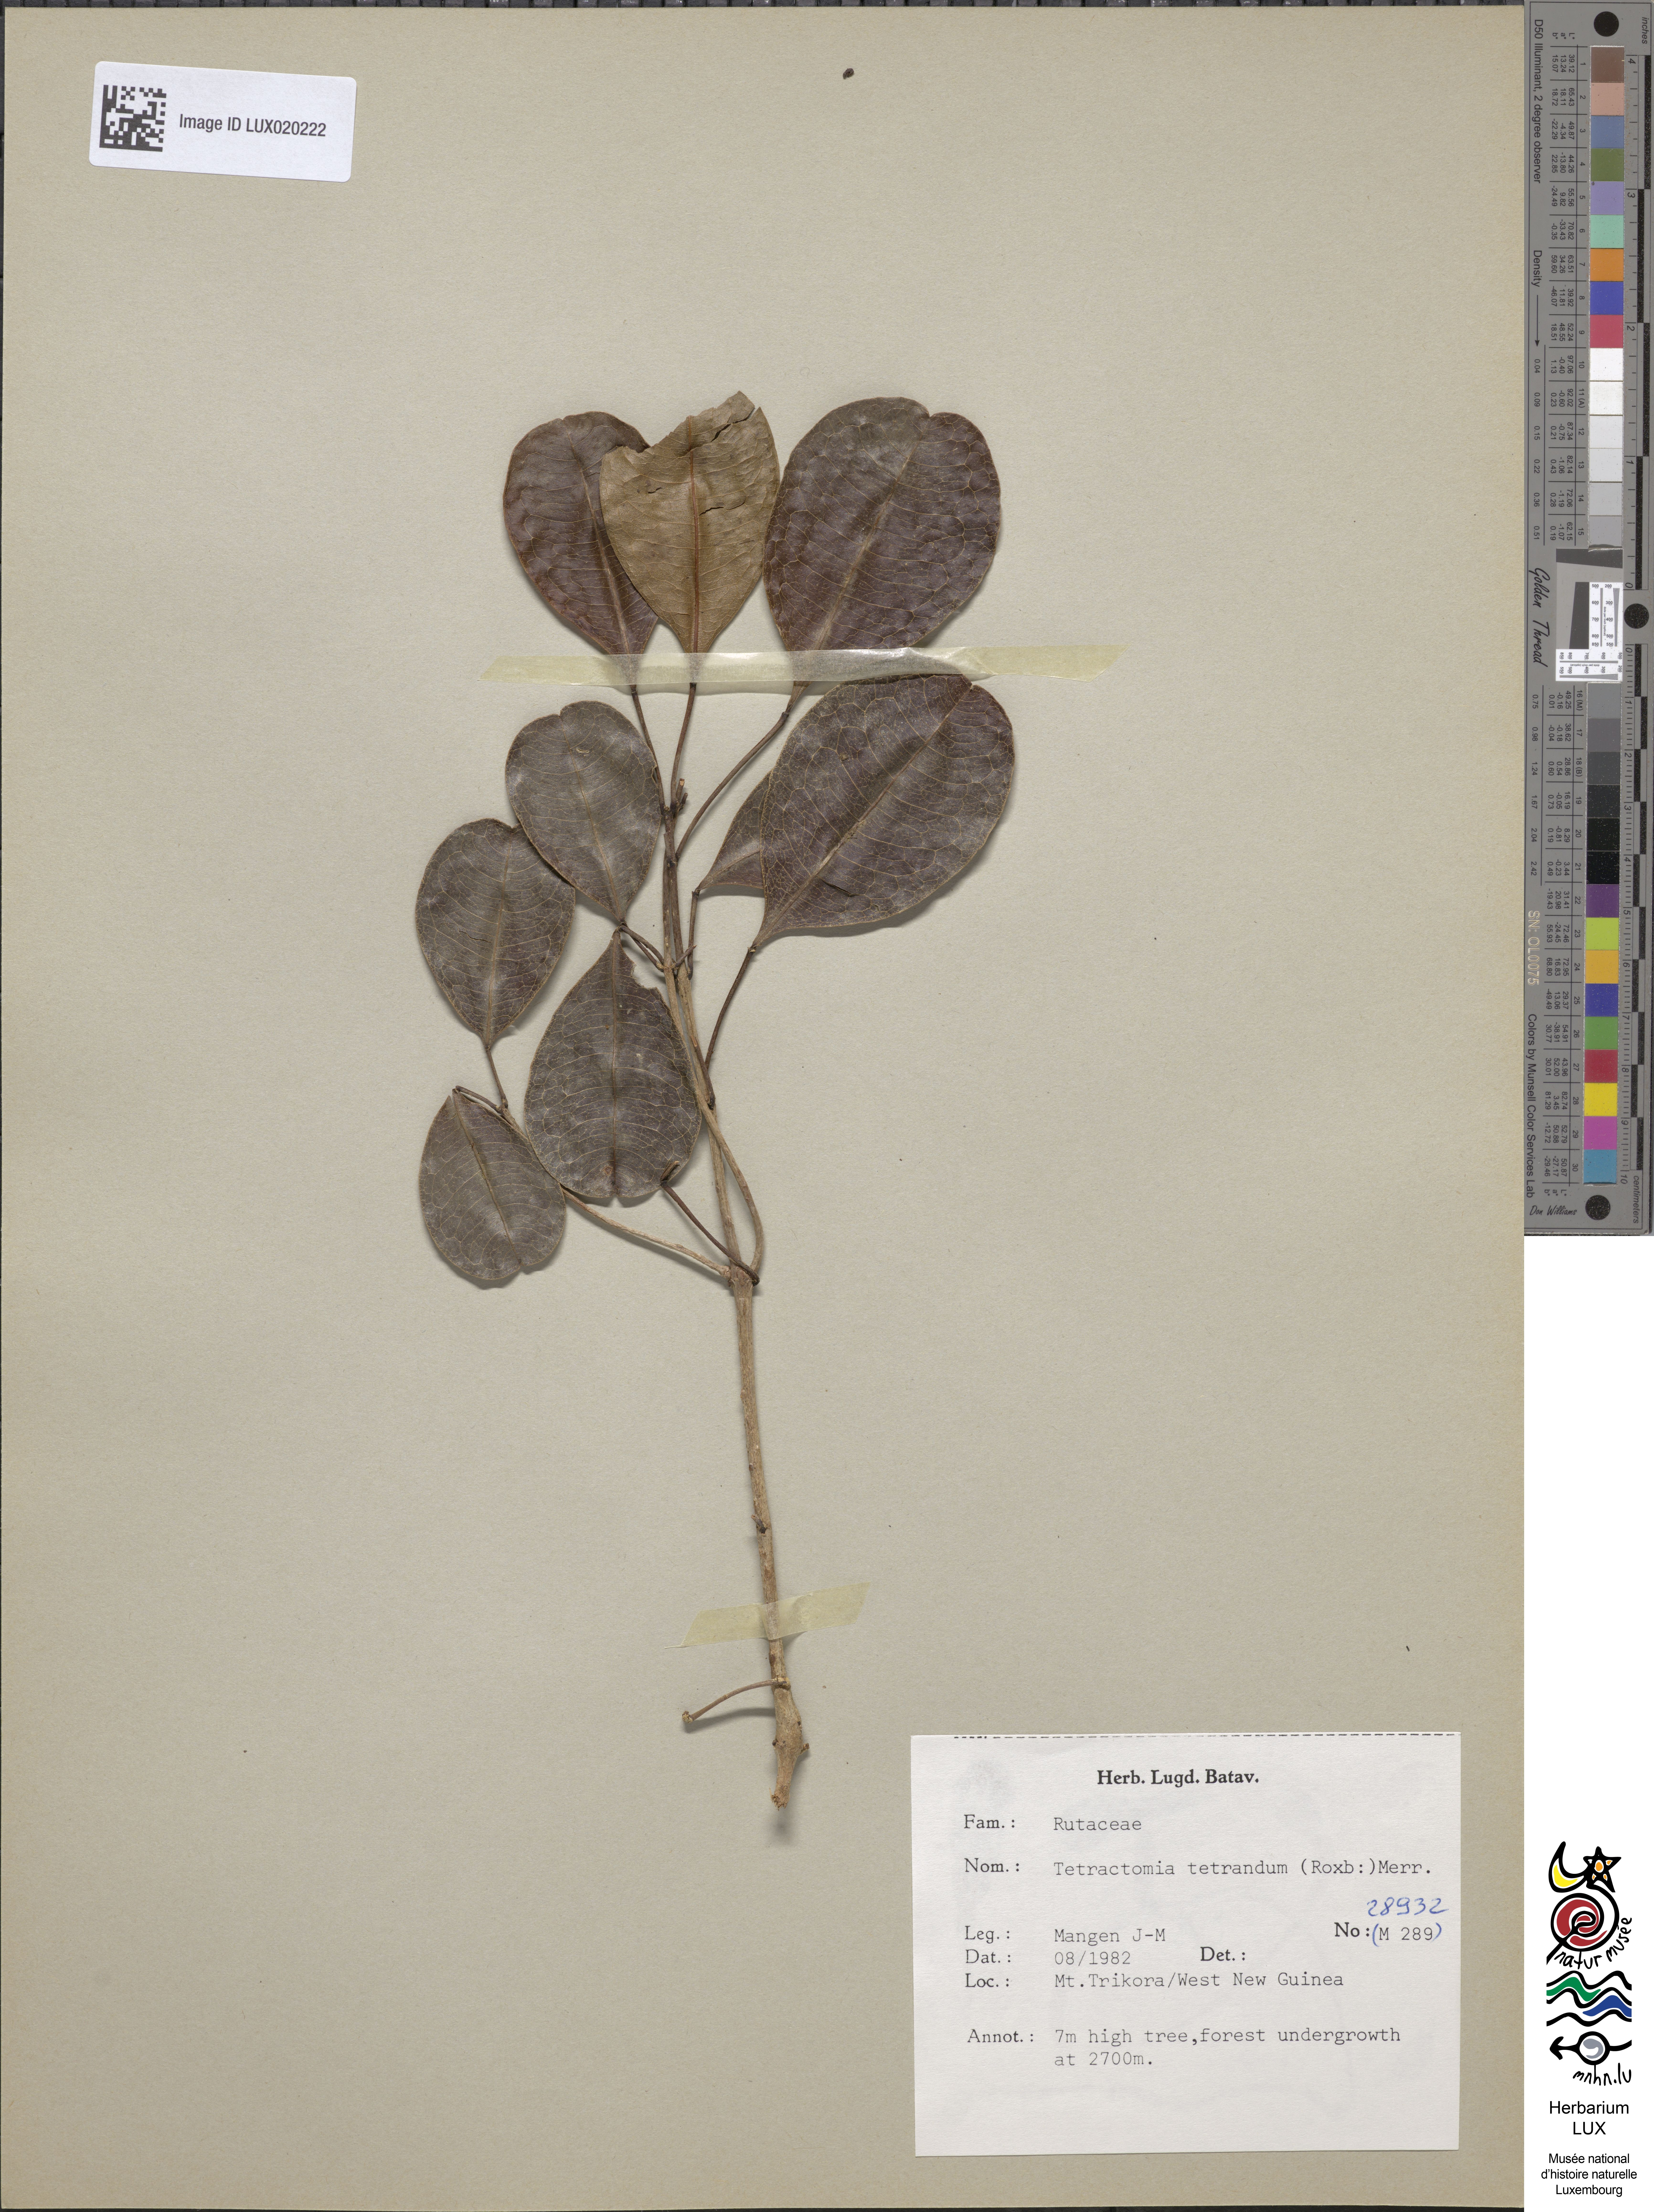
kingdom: Plantae
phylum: Tracheophyta
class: Magnoliopsida
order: Sapindales
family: Rutaceae
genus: Tetractomia
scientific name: Tetractomia tetrandra
